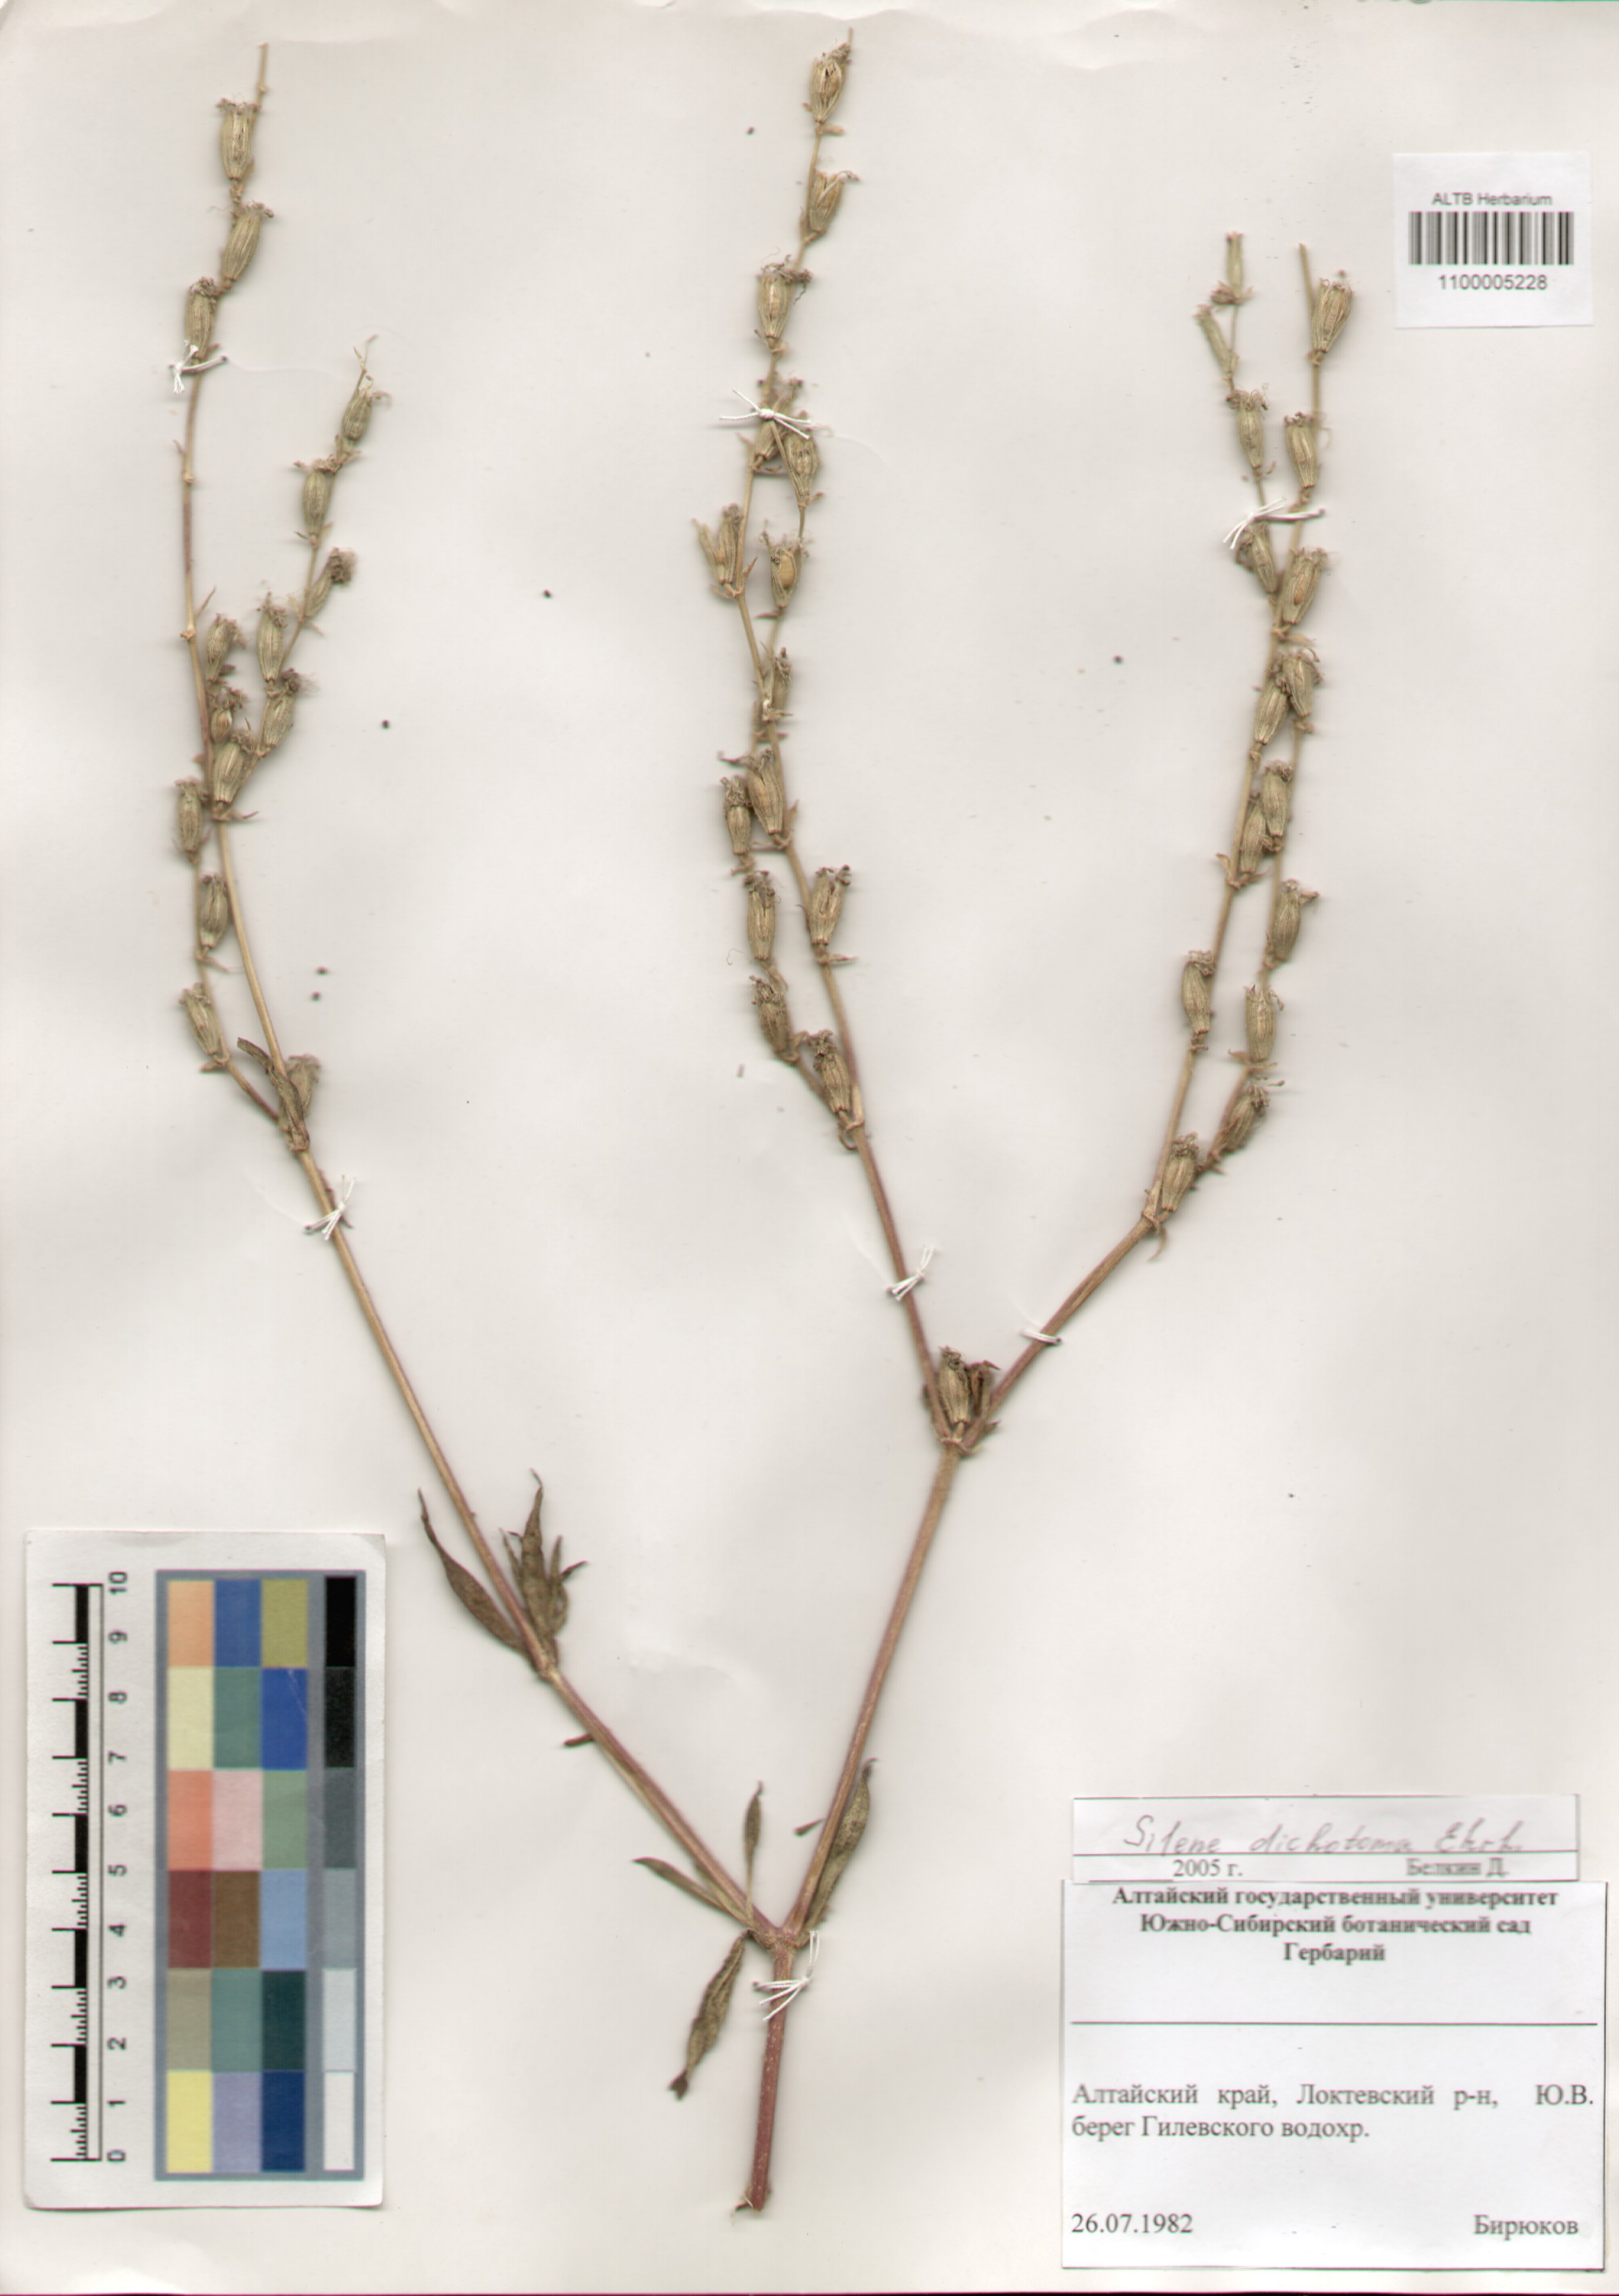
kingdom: Plantae
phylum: Tracheophyta
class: Magnoliopsida
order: Caryophyllales
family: Caryophyllaceae
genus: Silene
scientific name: Silene dichotoma
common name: Forked catchfly
